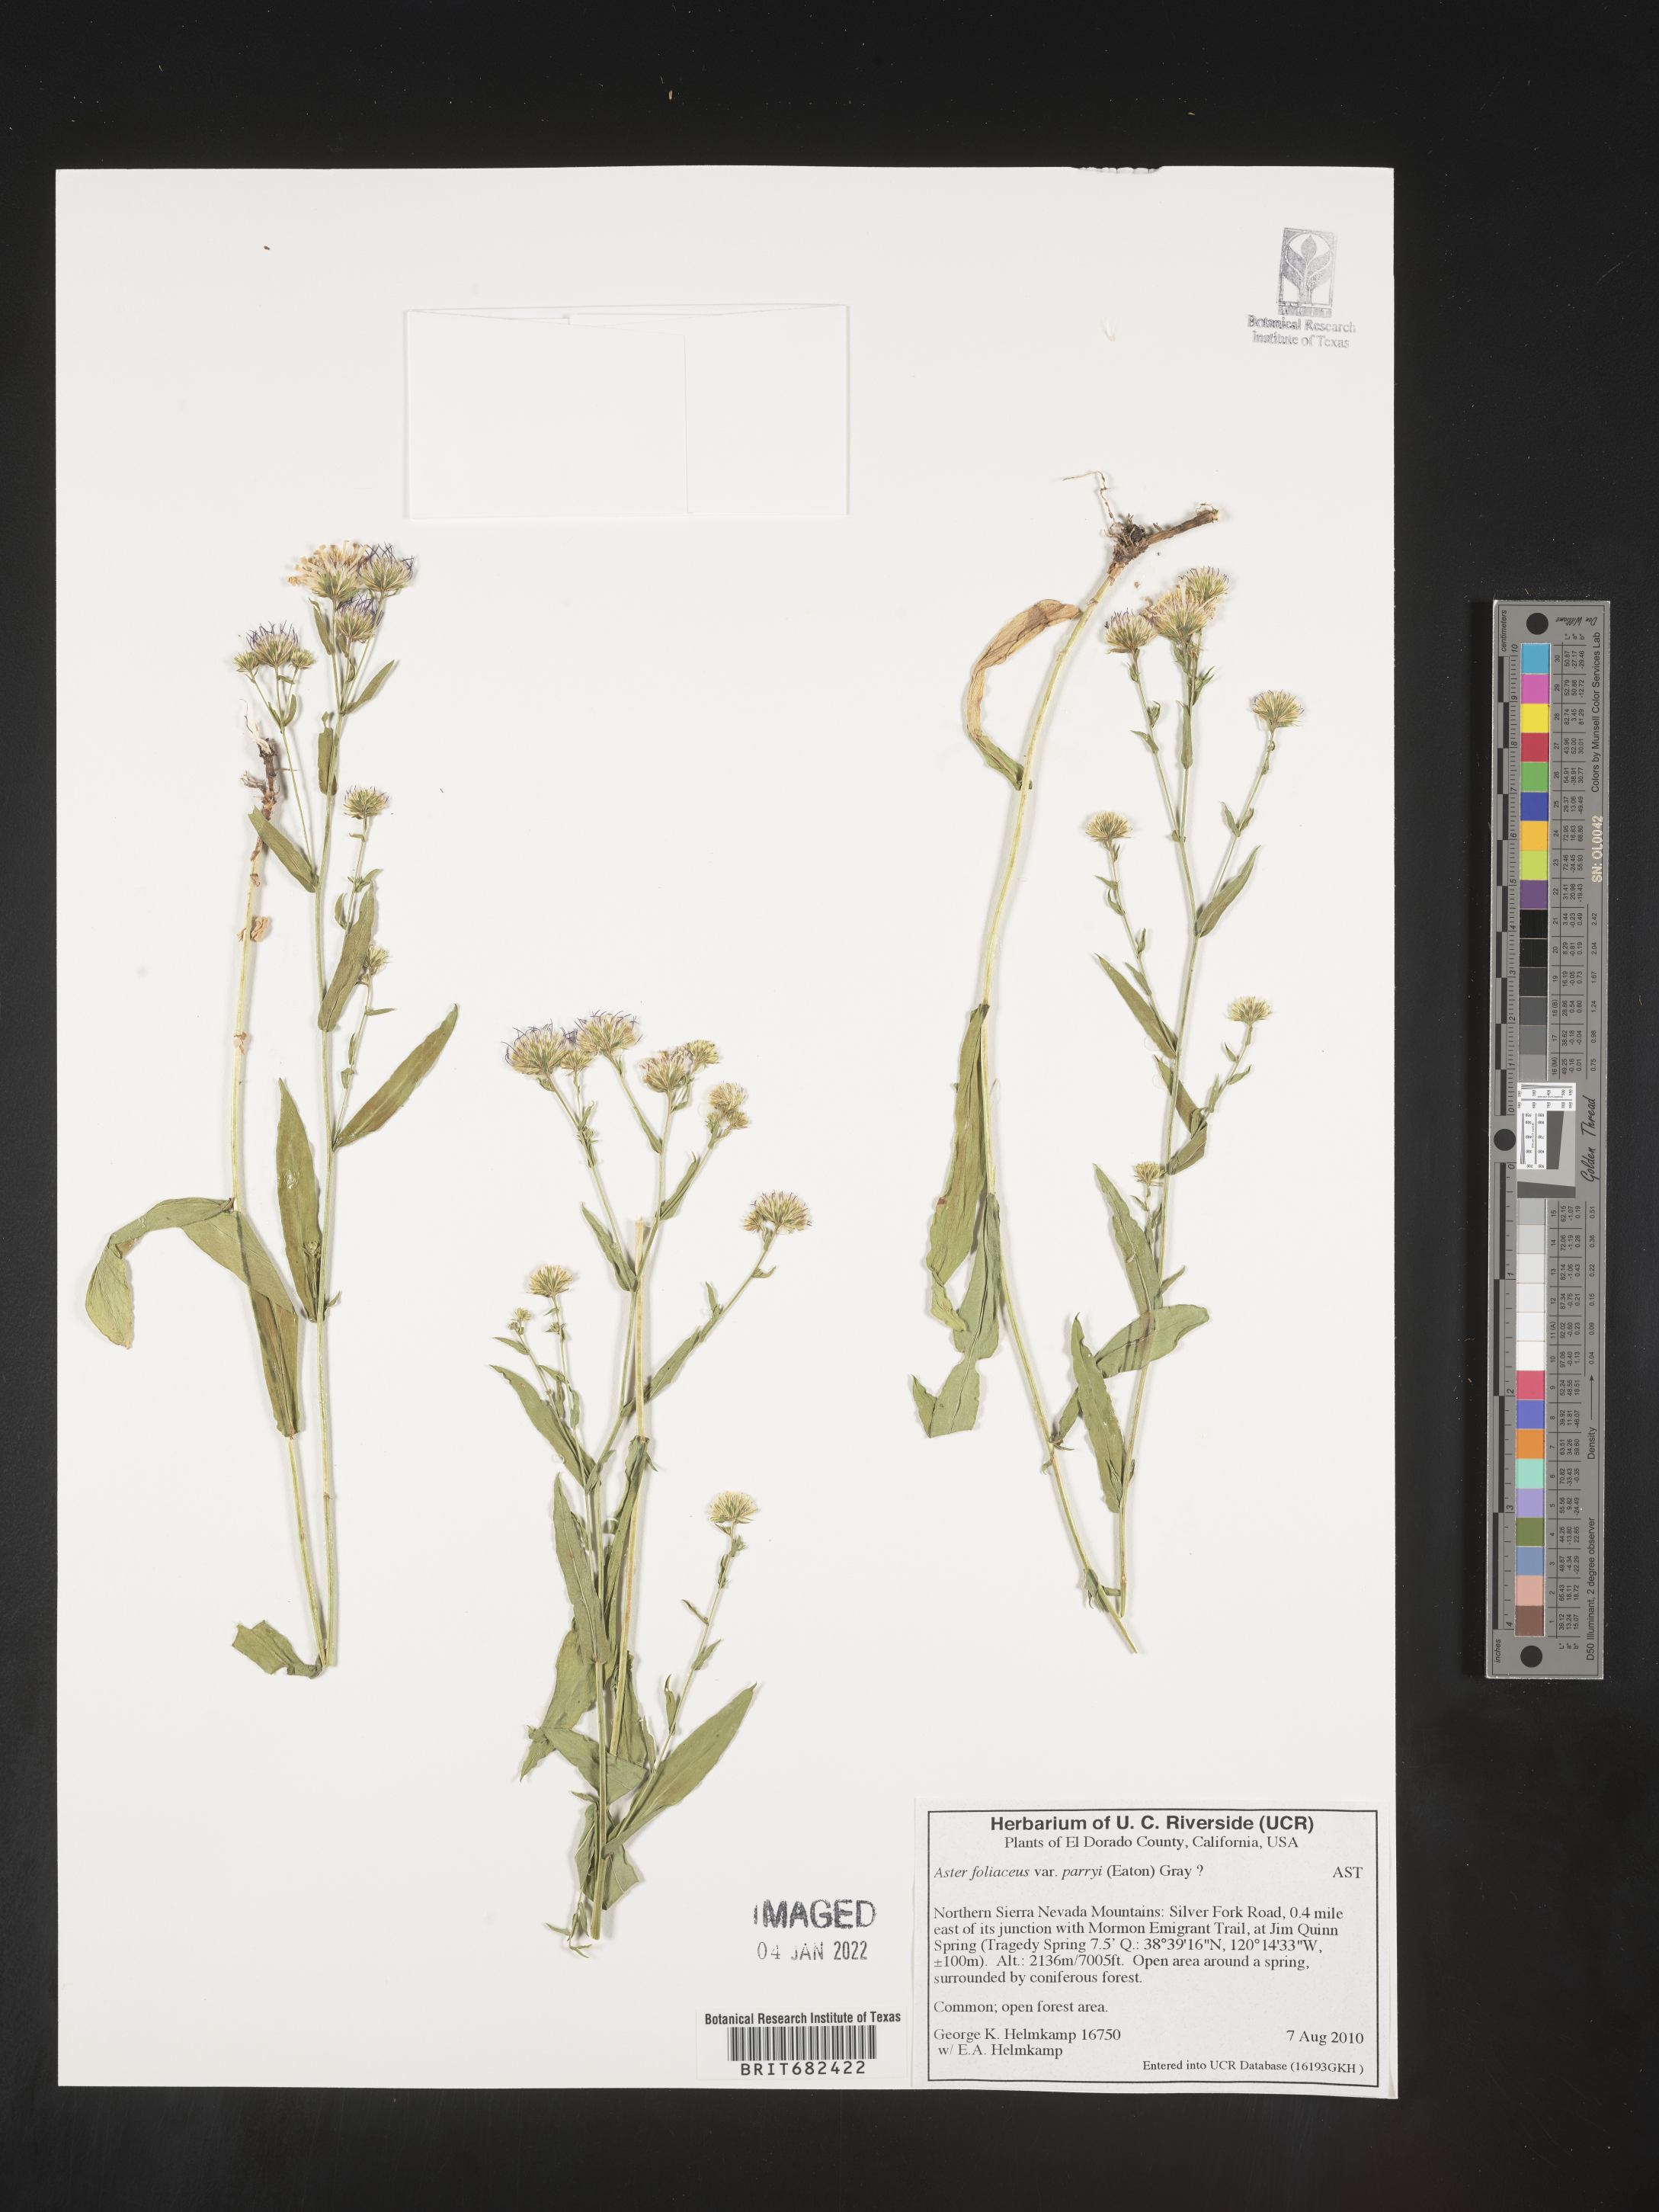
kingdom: Plantae
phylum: Tracheophyta
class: Magnoliopsida
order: Asterales
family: Asteraceae
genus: Aster
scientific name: Aster
